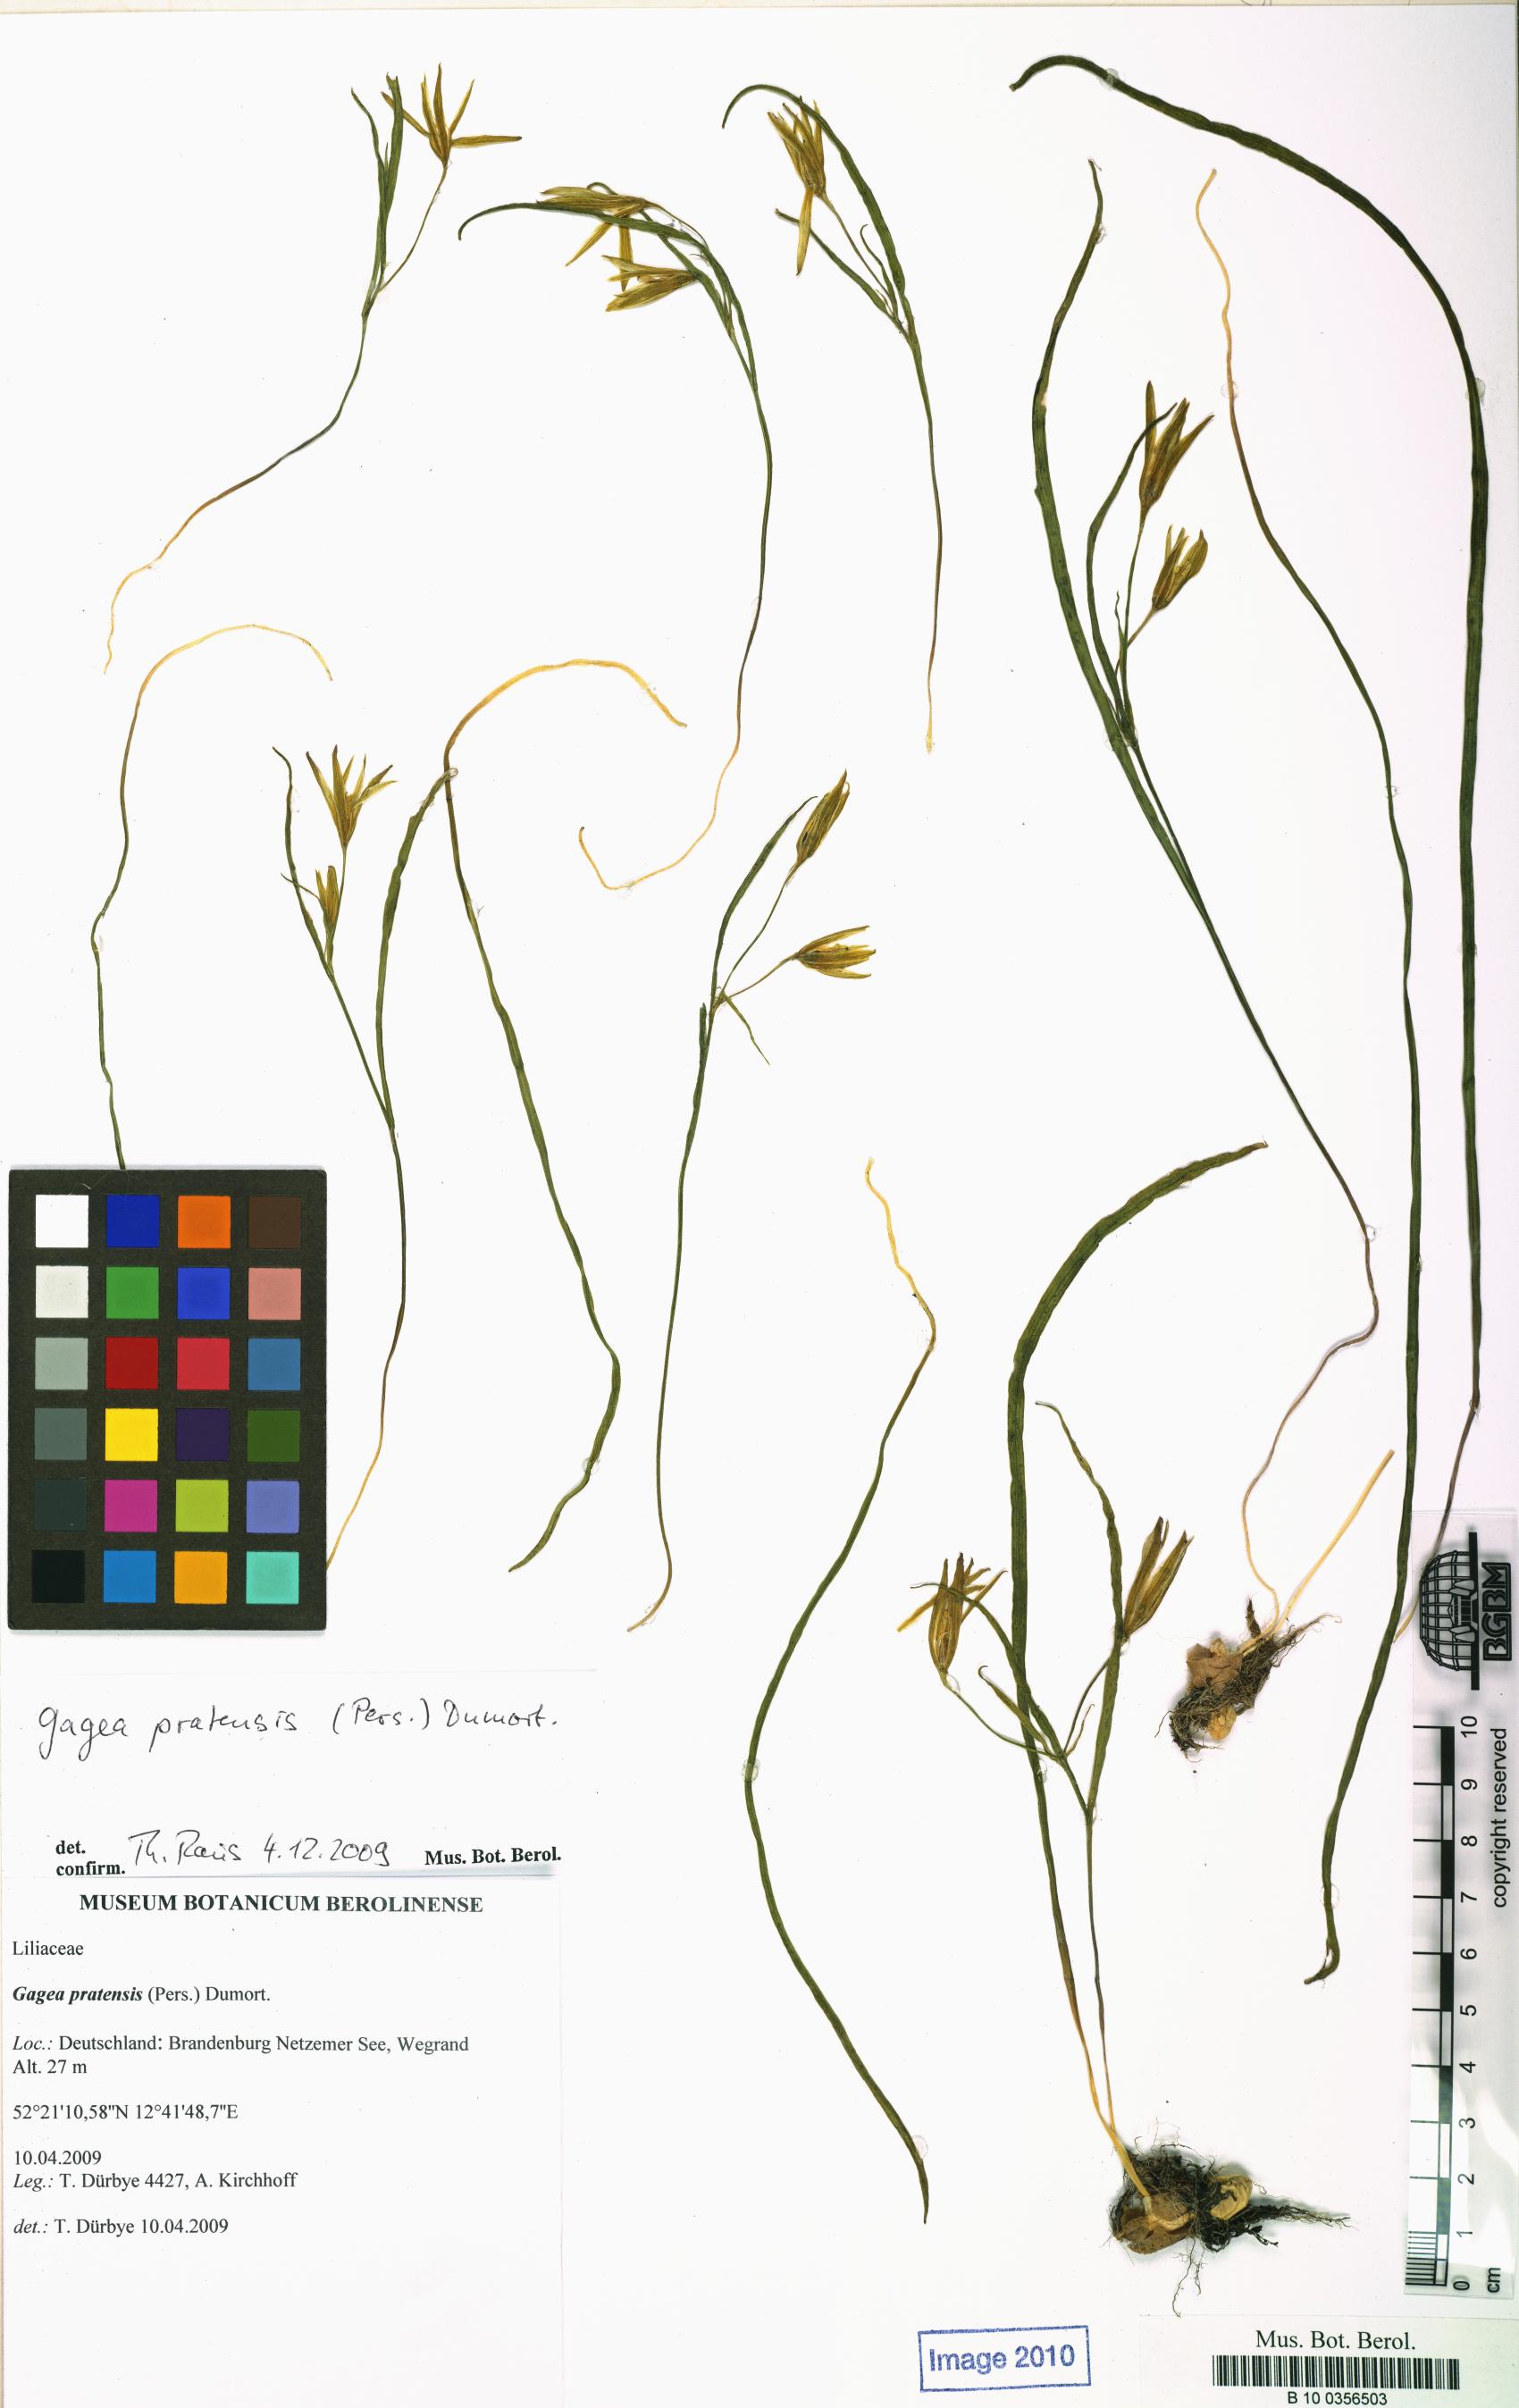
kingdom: Plantae
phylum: Tracheophyta
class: Liliopsida
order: Liliales
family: Liliaceae
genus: Gagea
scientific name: Gagea pratensis
